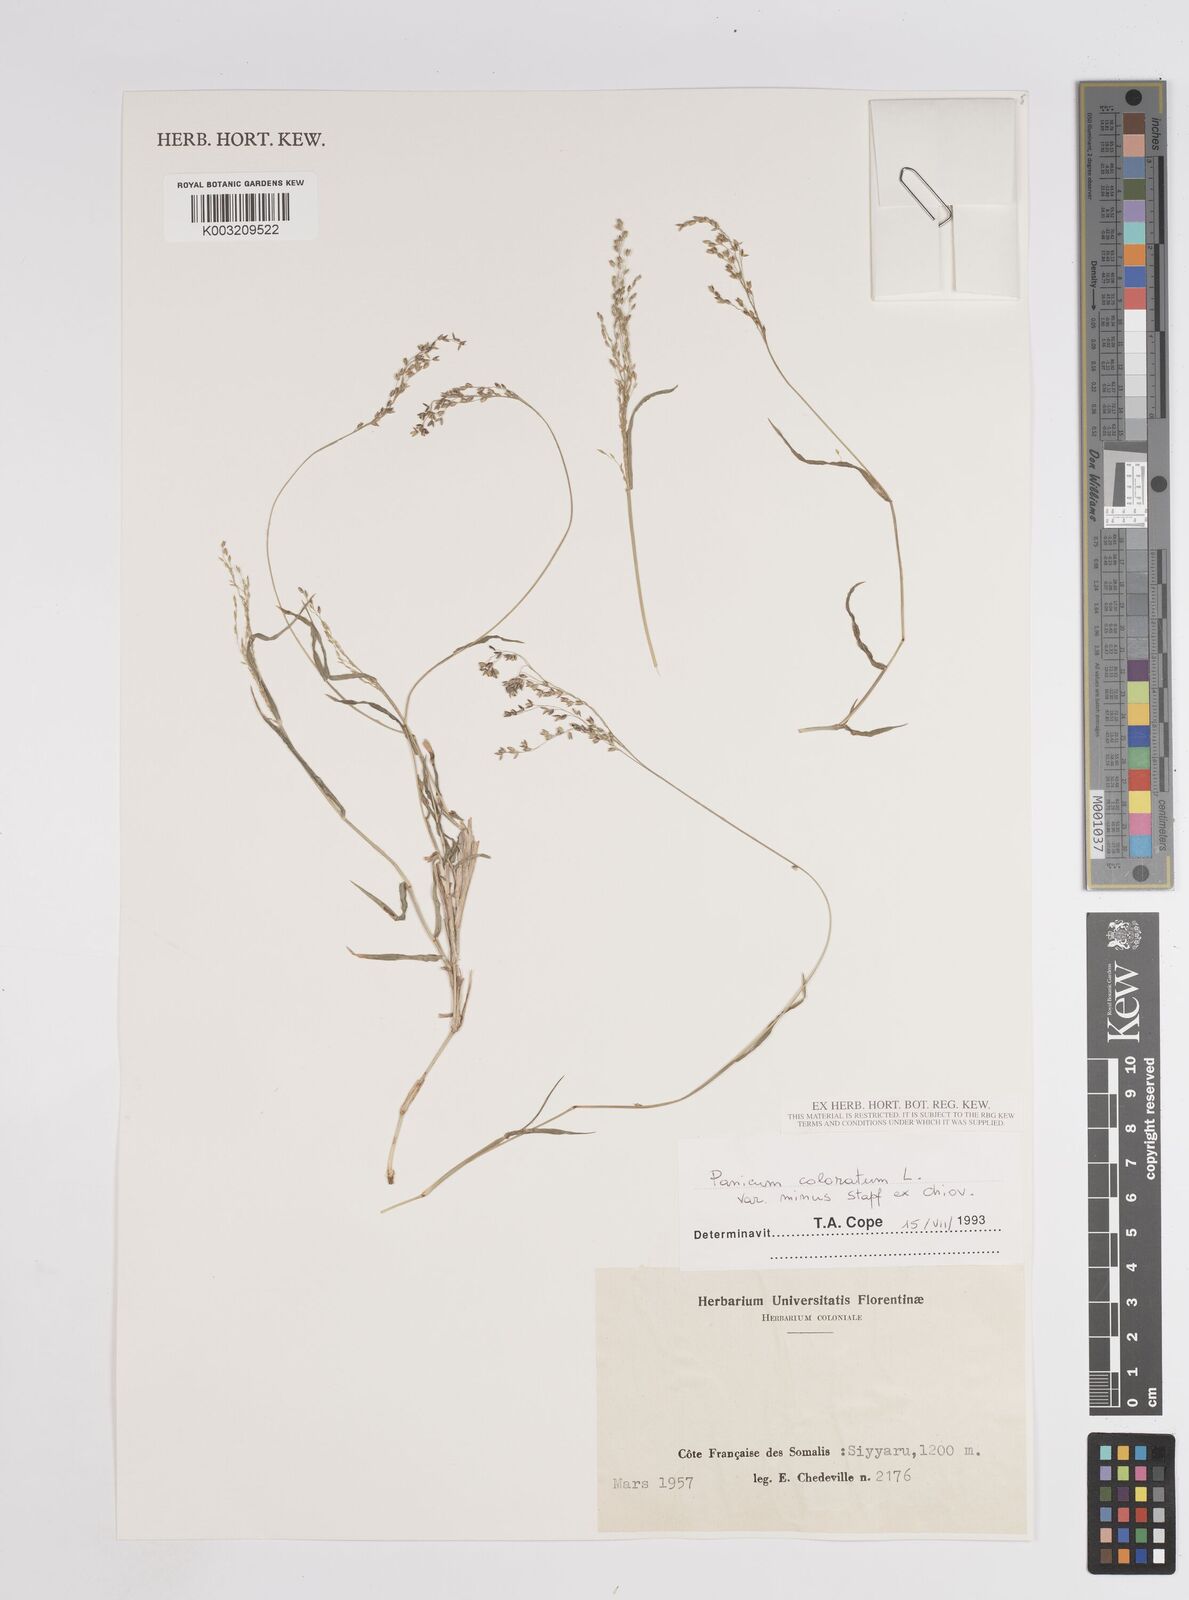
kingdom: Plantae
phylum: Tracheophyta
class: Liliopsida
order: Poales
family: Poaceae
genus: Panicum
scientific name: Panicum coloratum
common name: Kleingrass
